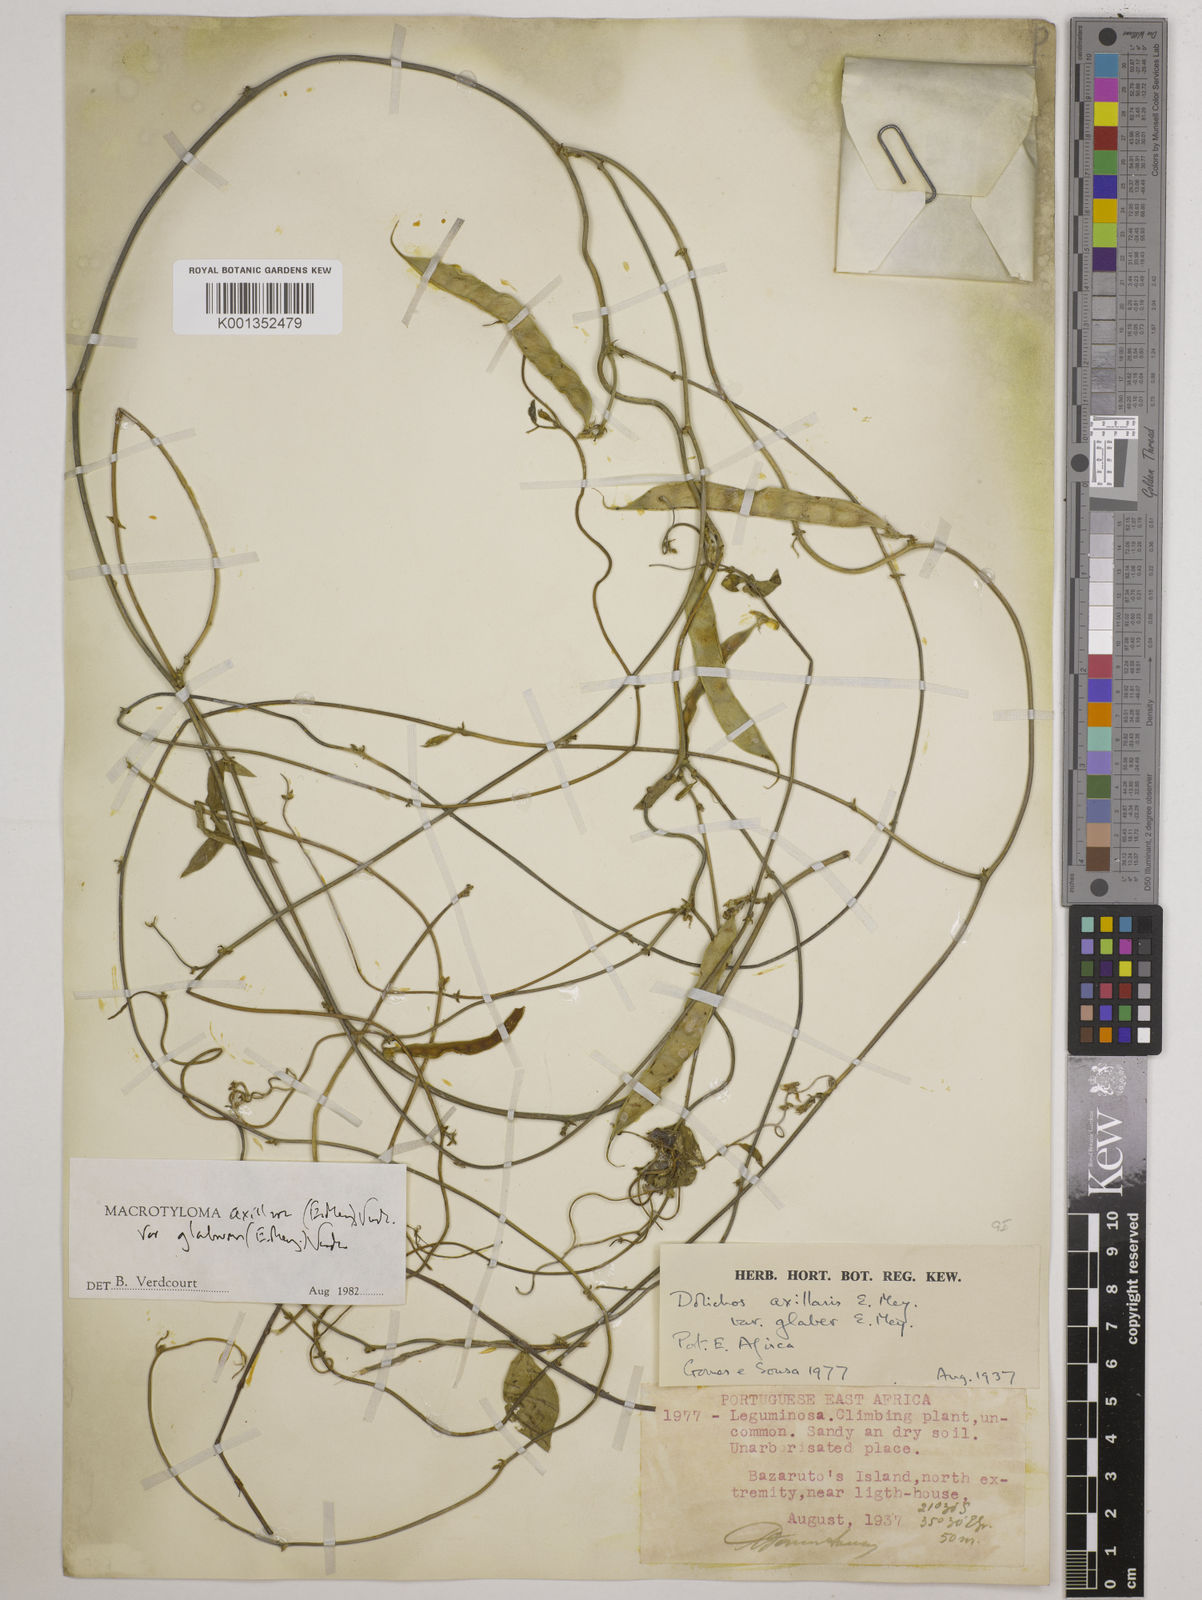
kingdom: Plantae
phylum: Tracheophyta
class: Magnoliopsida
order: Fabales
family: Fabaceae
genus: Macrotyloma
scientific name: Macrotyloma
